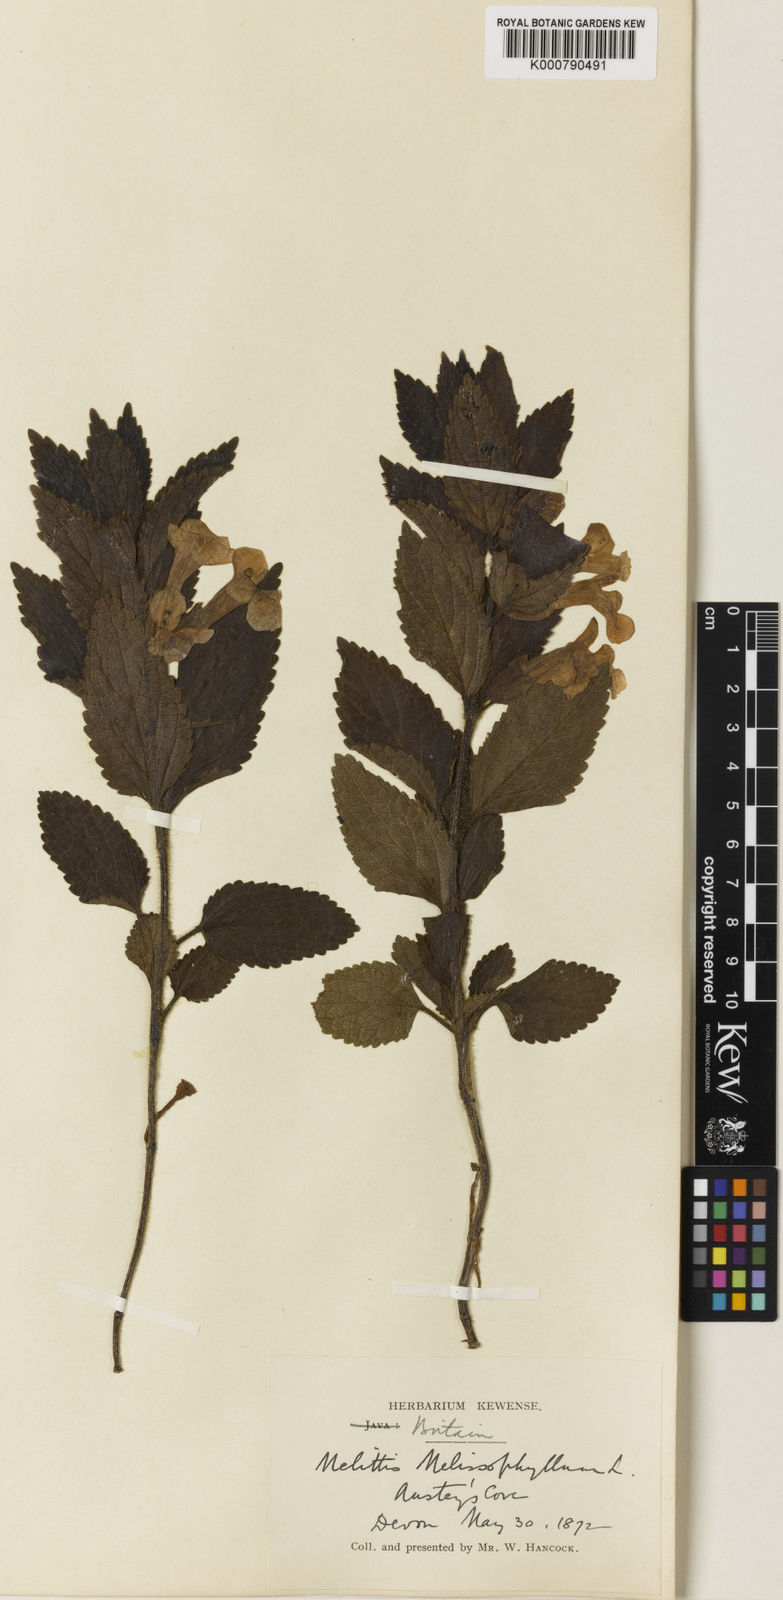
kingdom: Plantae
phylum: Tracheophyta
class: Magnoliopsida
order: Lamiales
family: Lamiaceae
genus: Melittis
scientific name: Melittis melissophyllum
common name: Bastard balm
